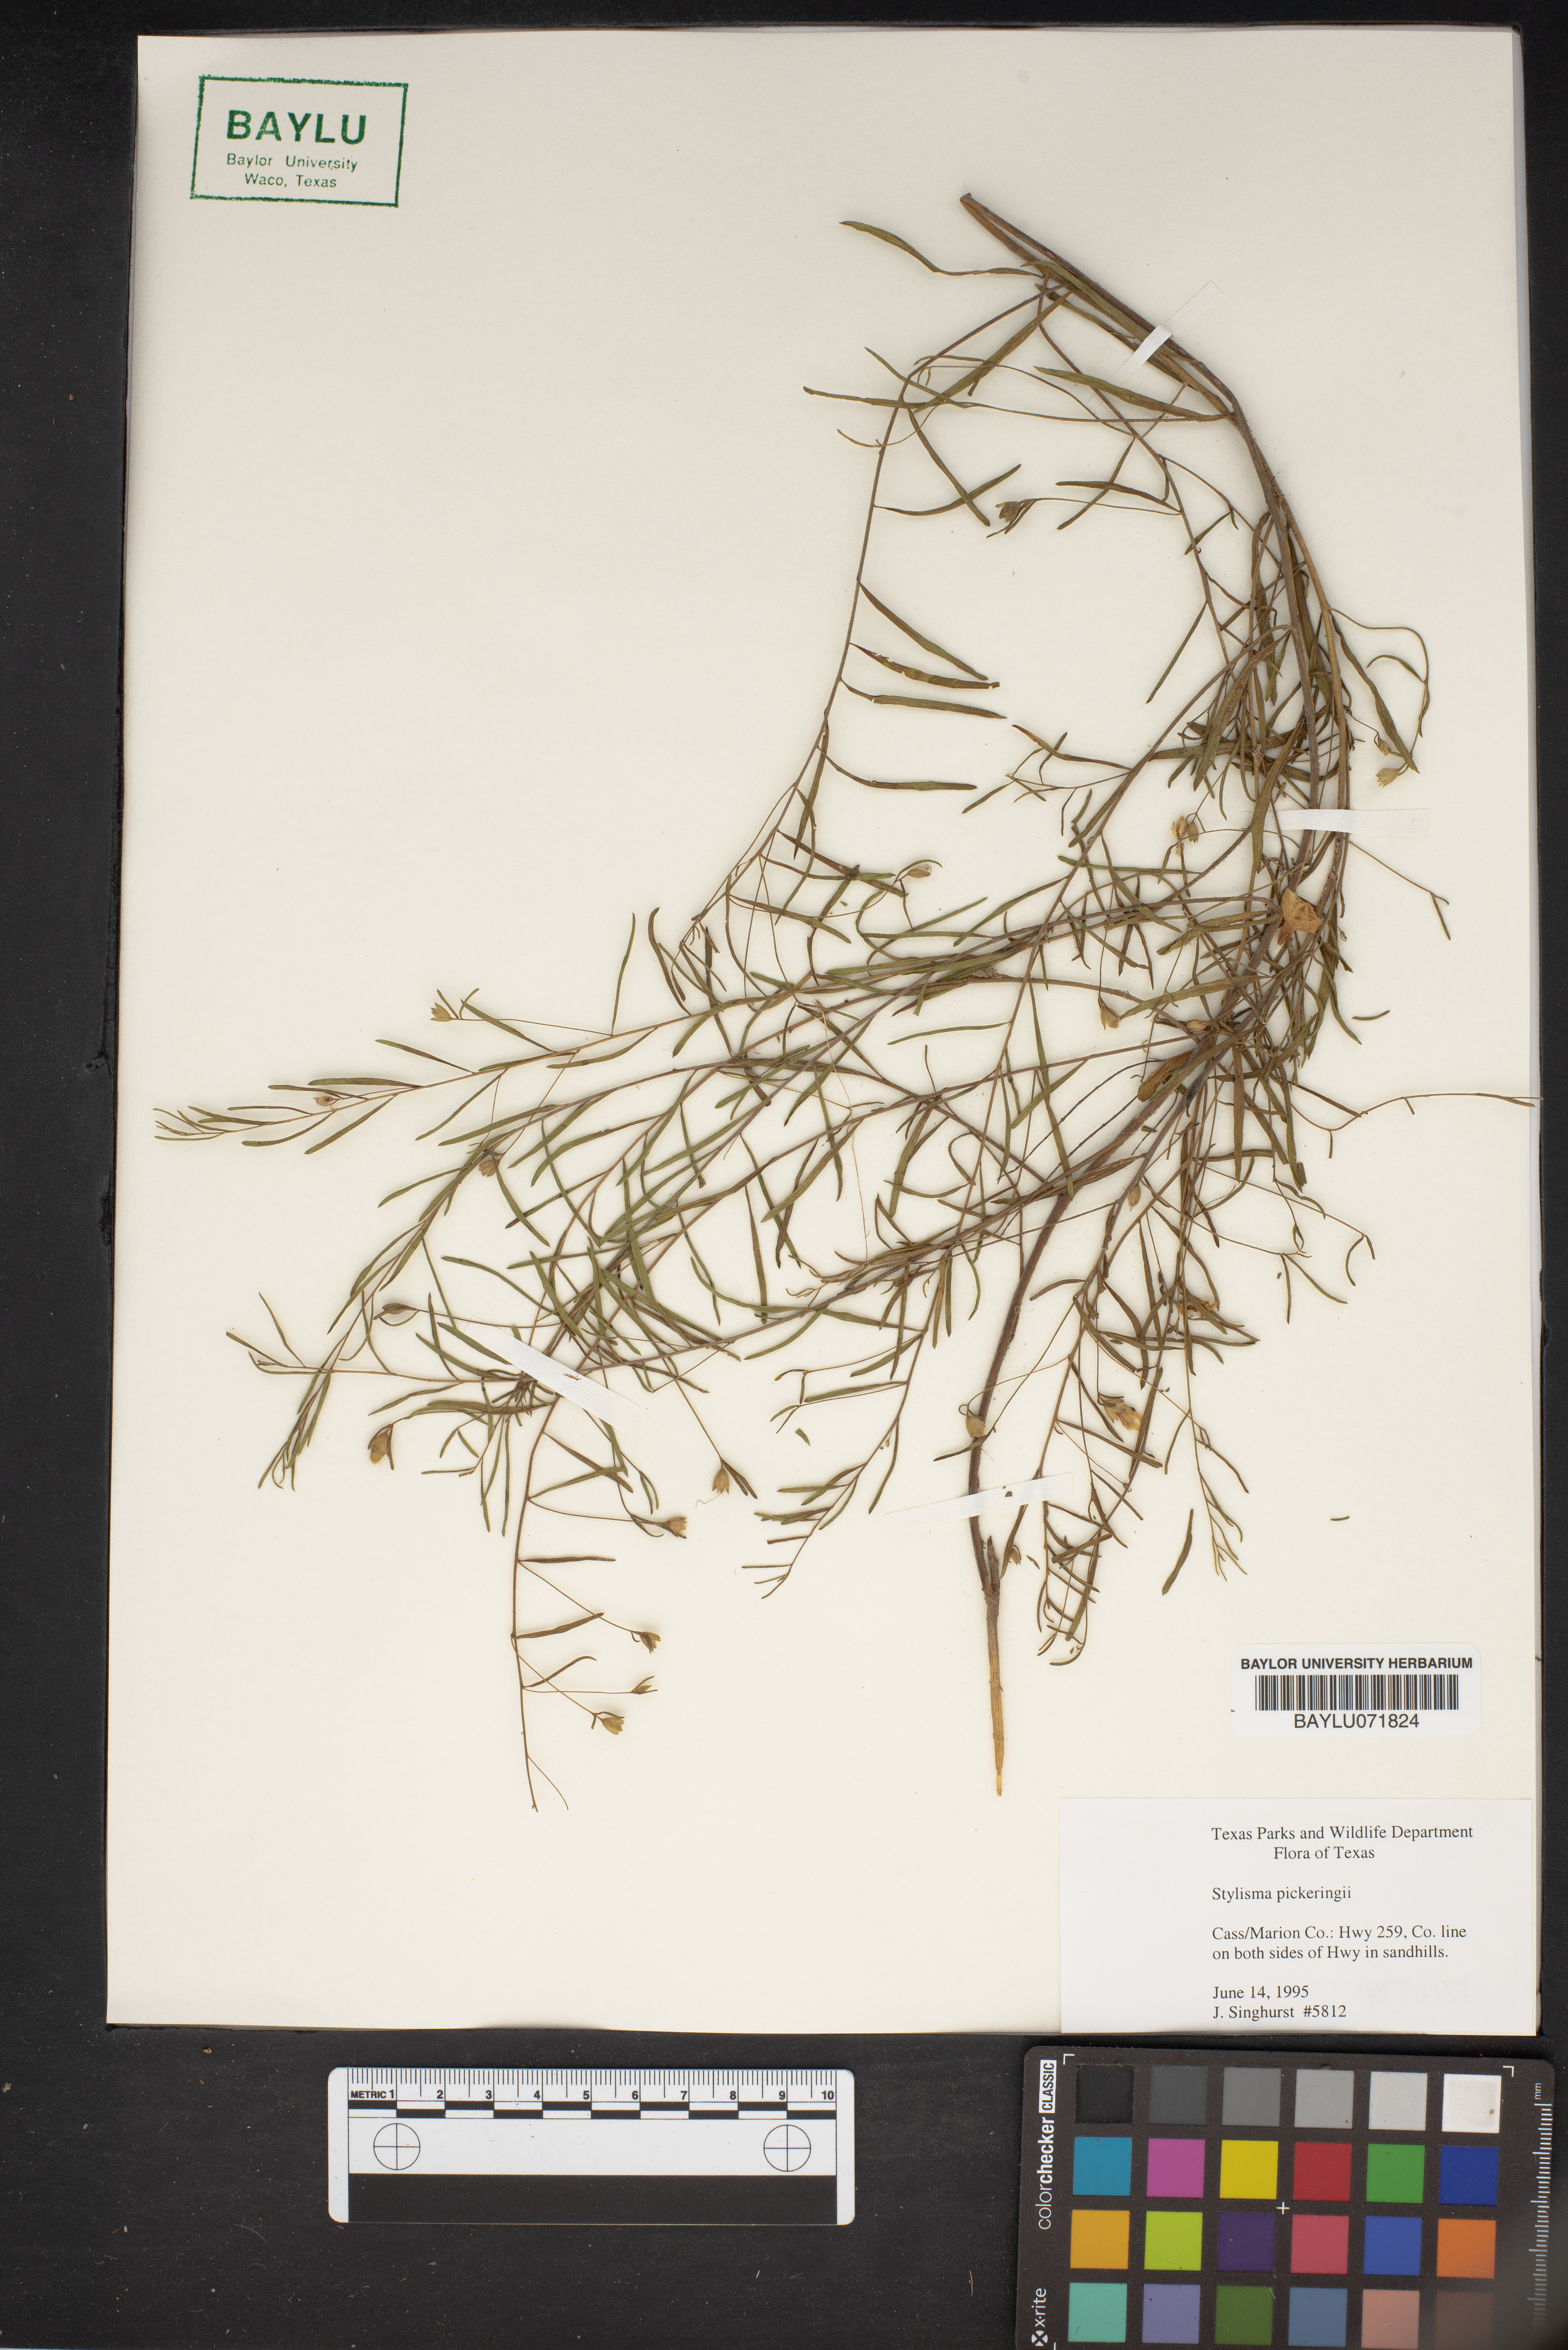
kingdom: Plantae
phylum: Tracheophyta
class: Magnoliopsida
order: Solanales
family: Convolvulaceae
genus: Stylisma
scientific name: Stylisma pickeringii
